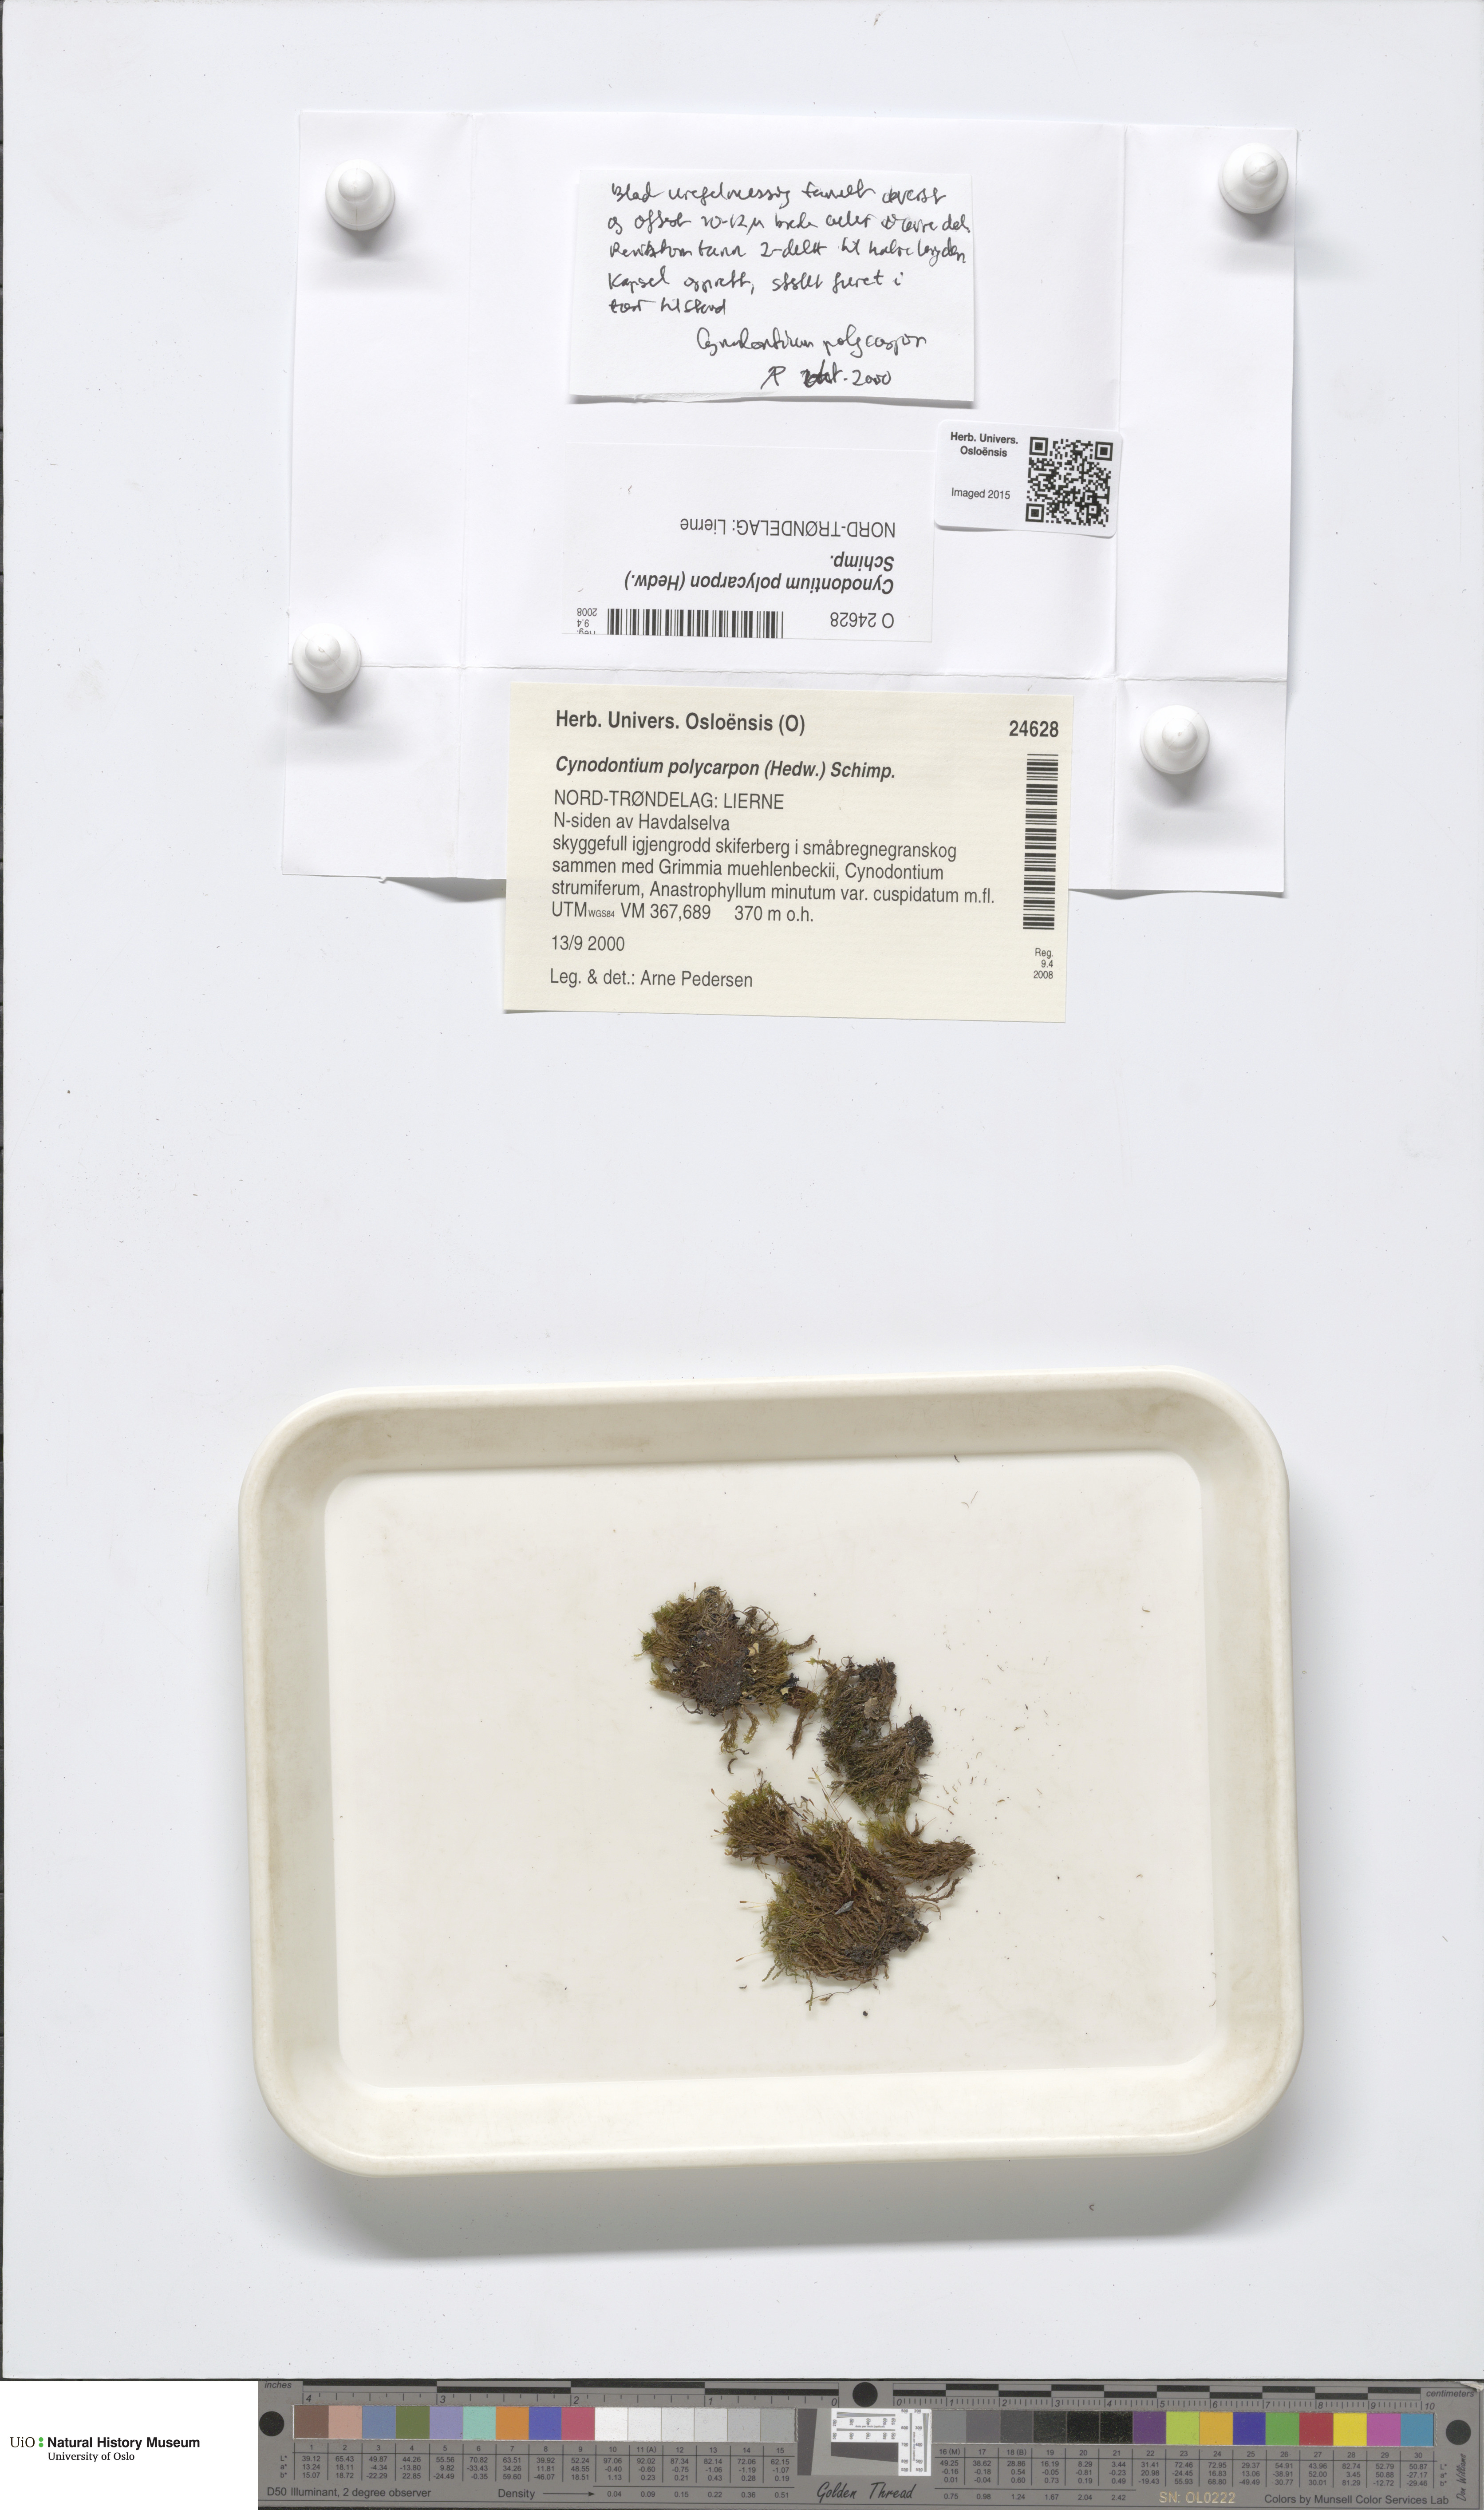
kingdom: Plantae
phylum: Bryophyta
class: Bryopsida
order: Dicranales
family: Rhabdoweisiaceae
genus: Cynodontium
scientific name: Cynodontium polycarpon
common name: Many-fruited dogtooth moss
